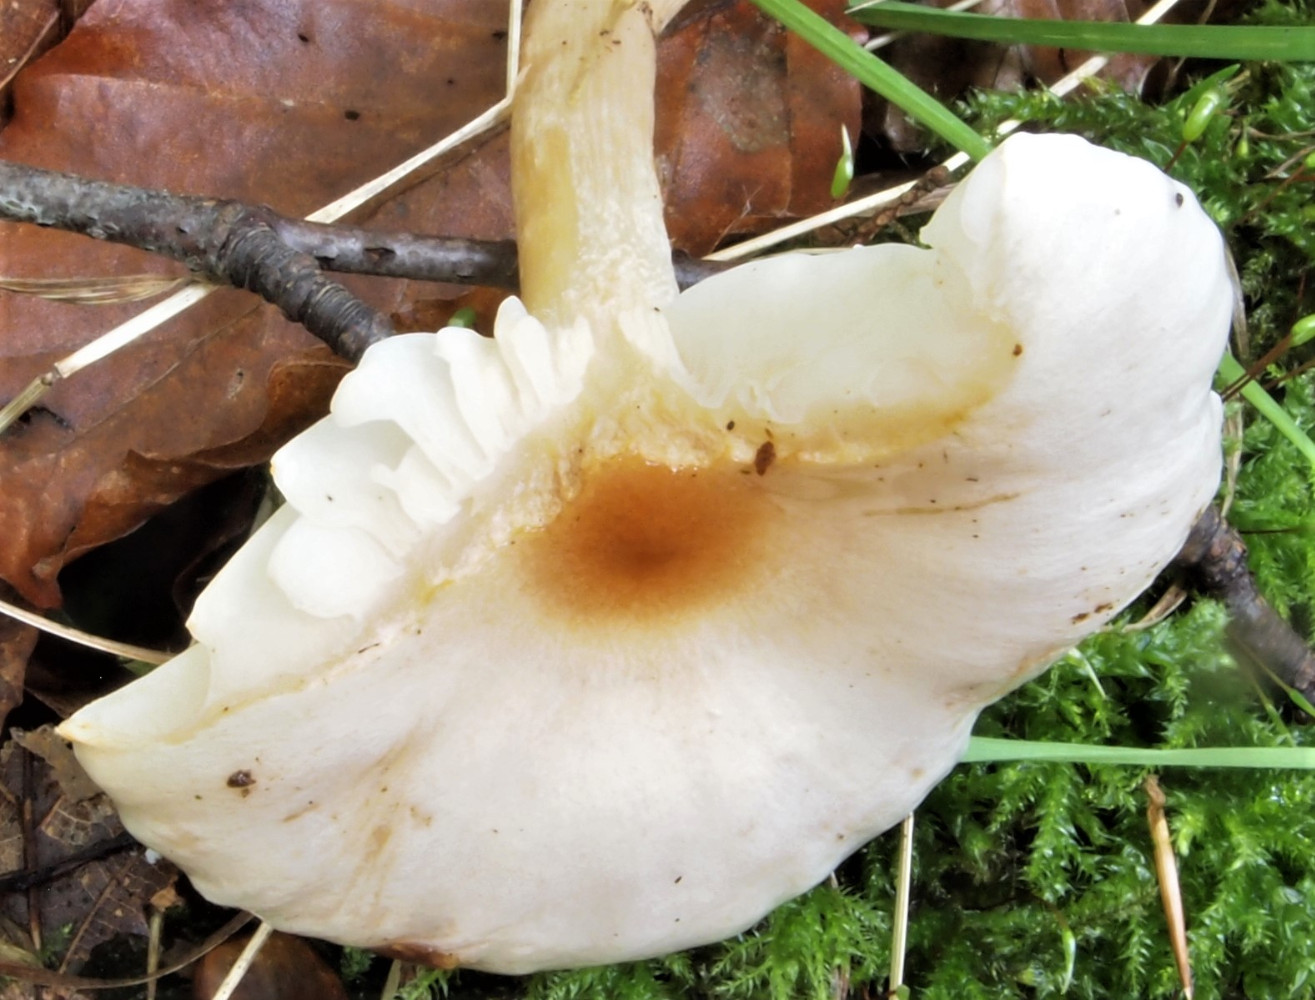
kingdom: Fungi
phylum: Basidiomycota
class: Agaricomycetes
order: Agaricales
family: Hygrophoraceae
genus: Hygrophorus
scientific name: Hygrophorus unicolor
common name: orangeøjet sneglehat
